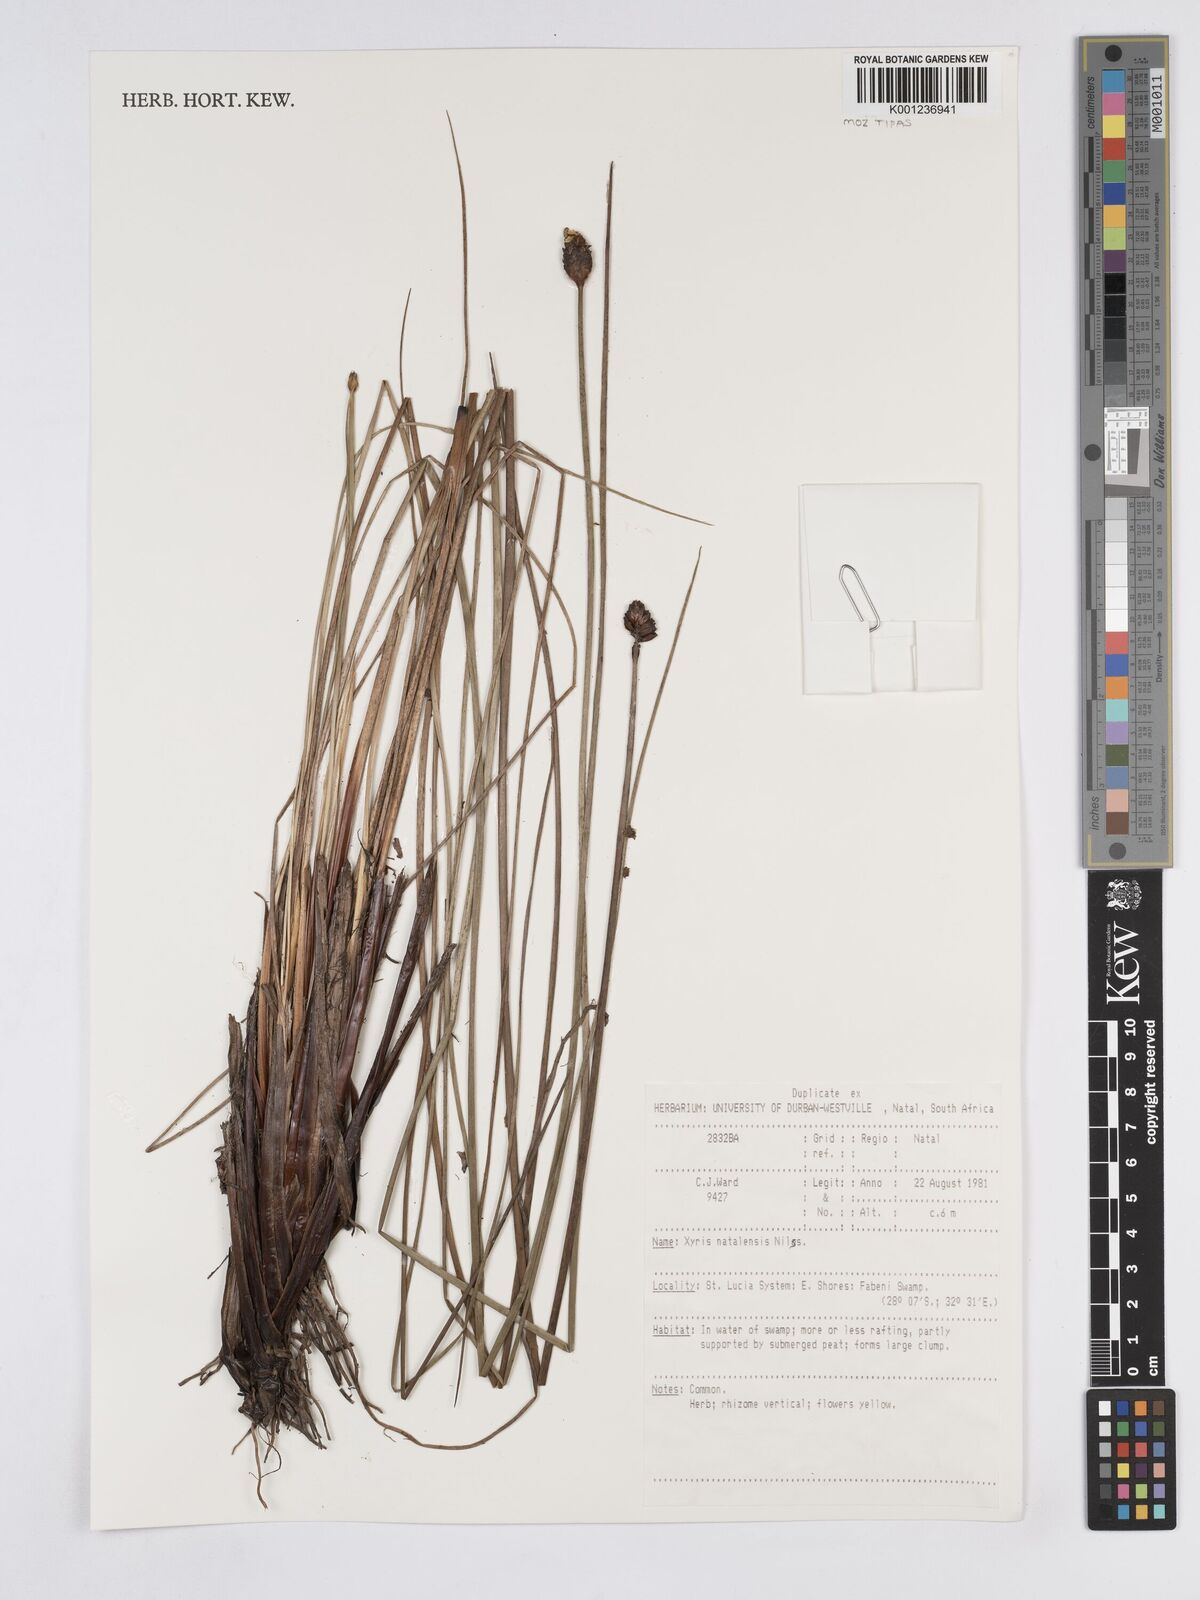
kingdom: Plantae
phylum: Tracheophyta
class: Liliopsida
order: Poales
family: Xyridaceae
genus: Xyris
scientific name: Xyris natalensis
